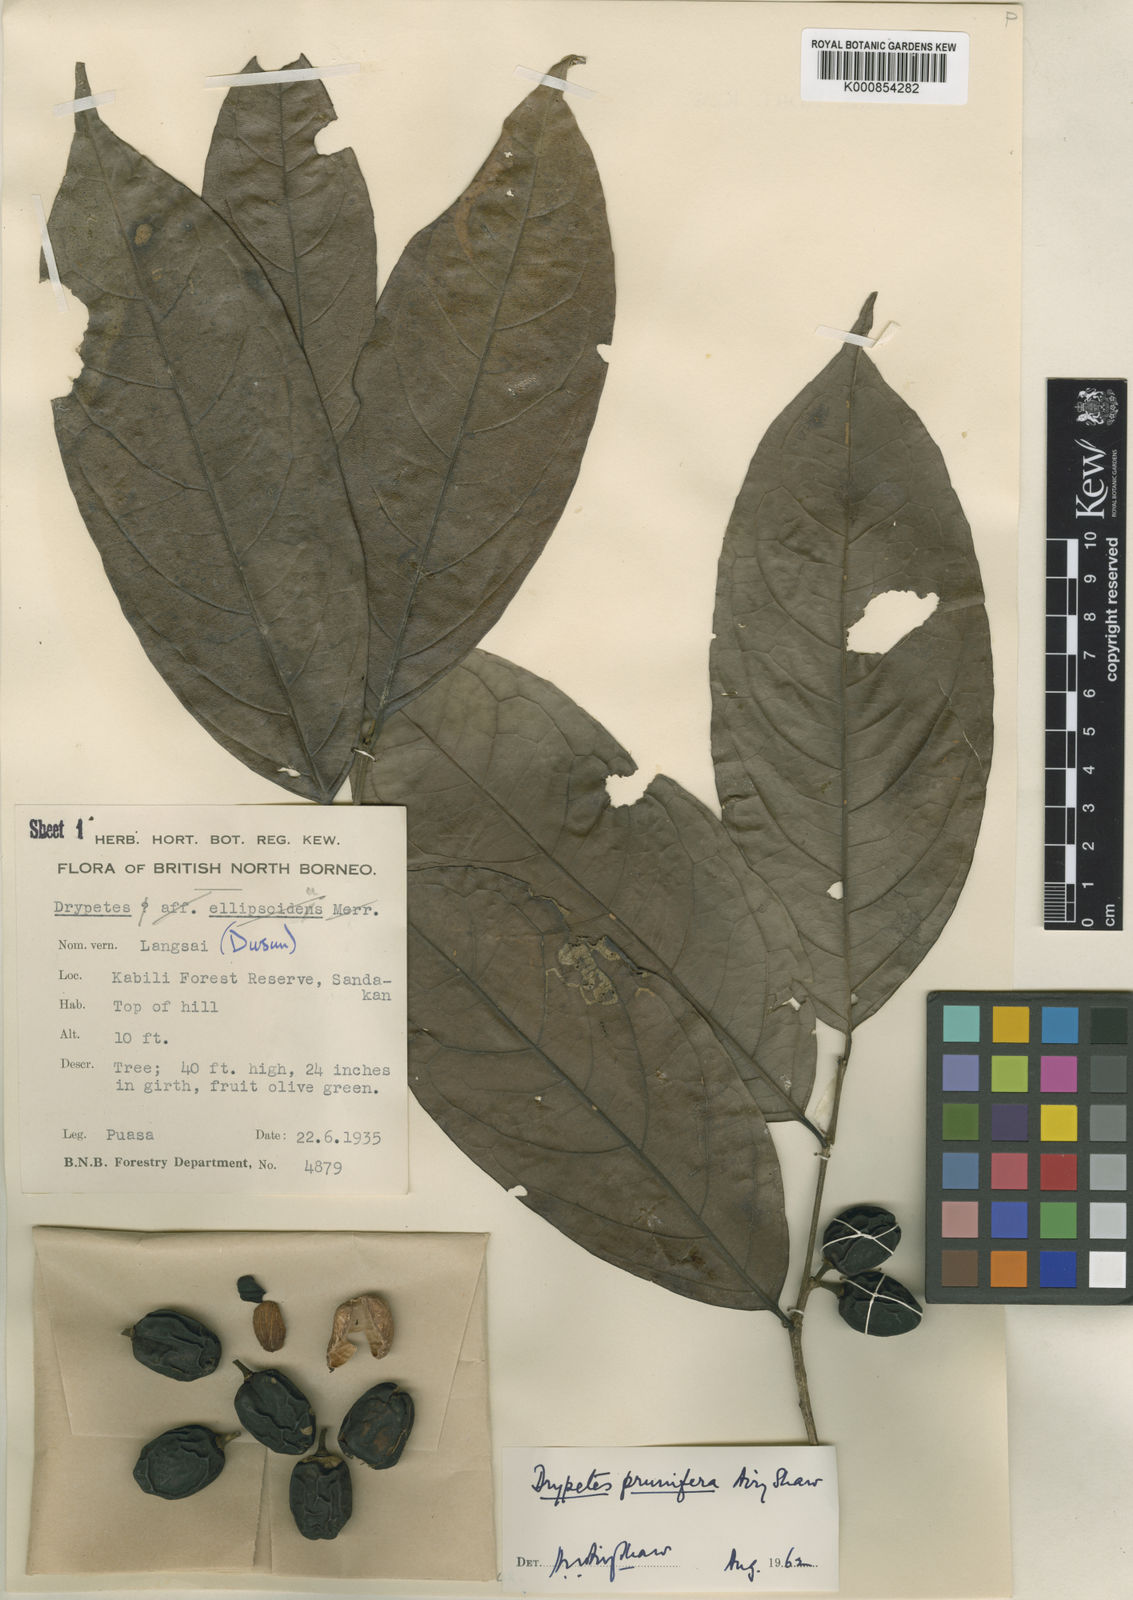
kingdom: Plantae
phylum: Tracheophyta
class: Magnoliopsida
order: Malpighiales
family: Putranjivaceae
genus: Drypetes
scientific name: Drypetes prunifera
